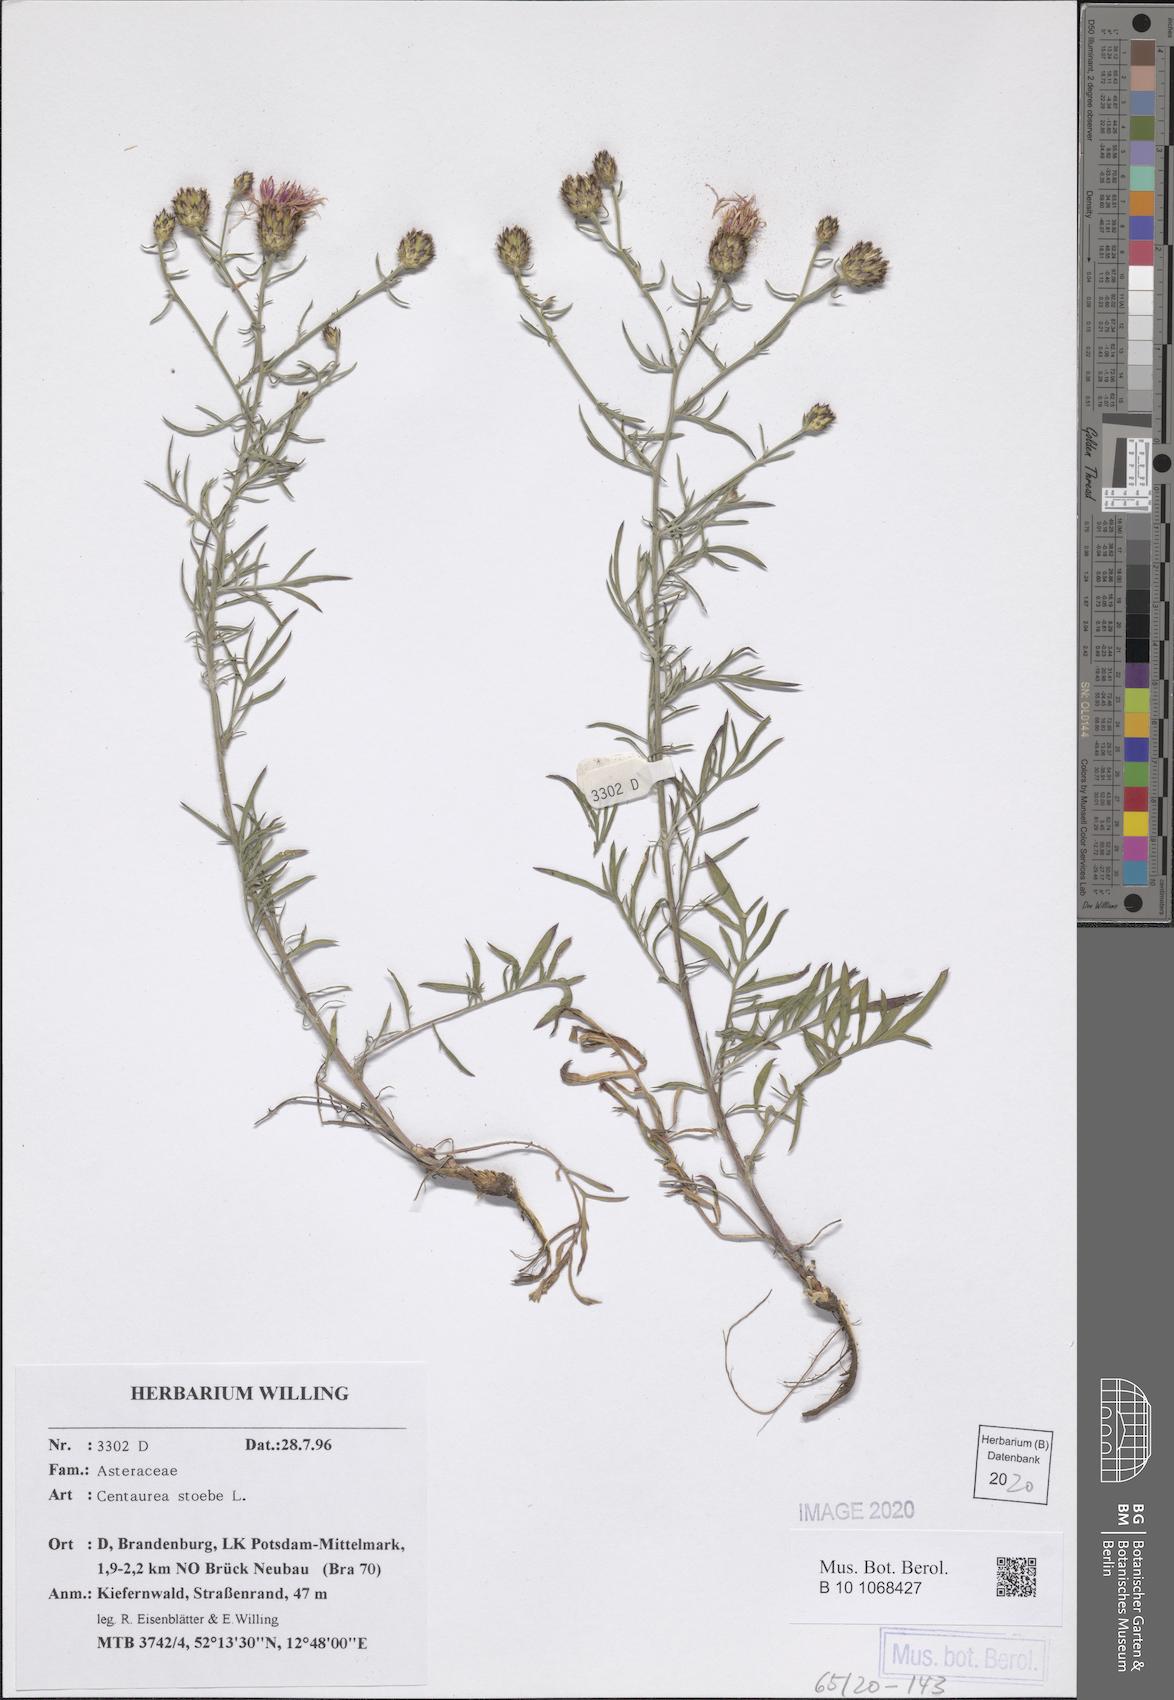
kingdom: Plantae
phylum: Tracheophyta
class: Magnoliopsida
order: Asterales
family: Asteraceae
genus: Centaurea
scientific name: Centaurea stoebe
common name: Spotted knapweed
